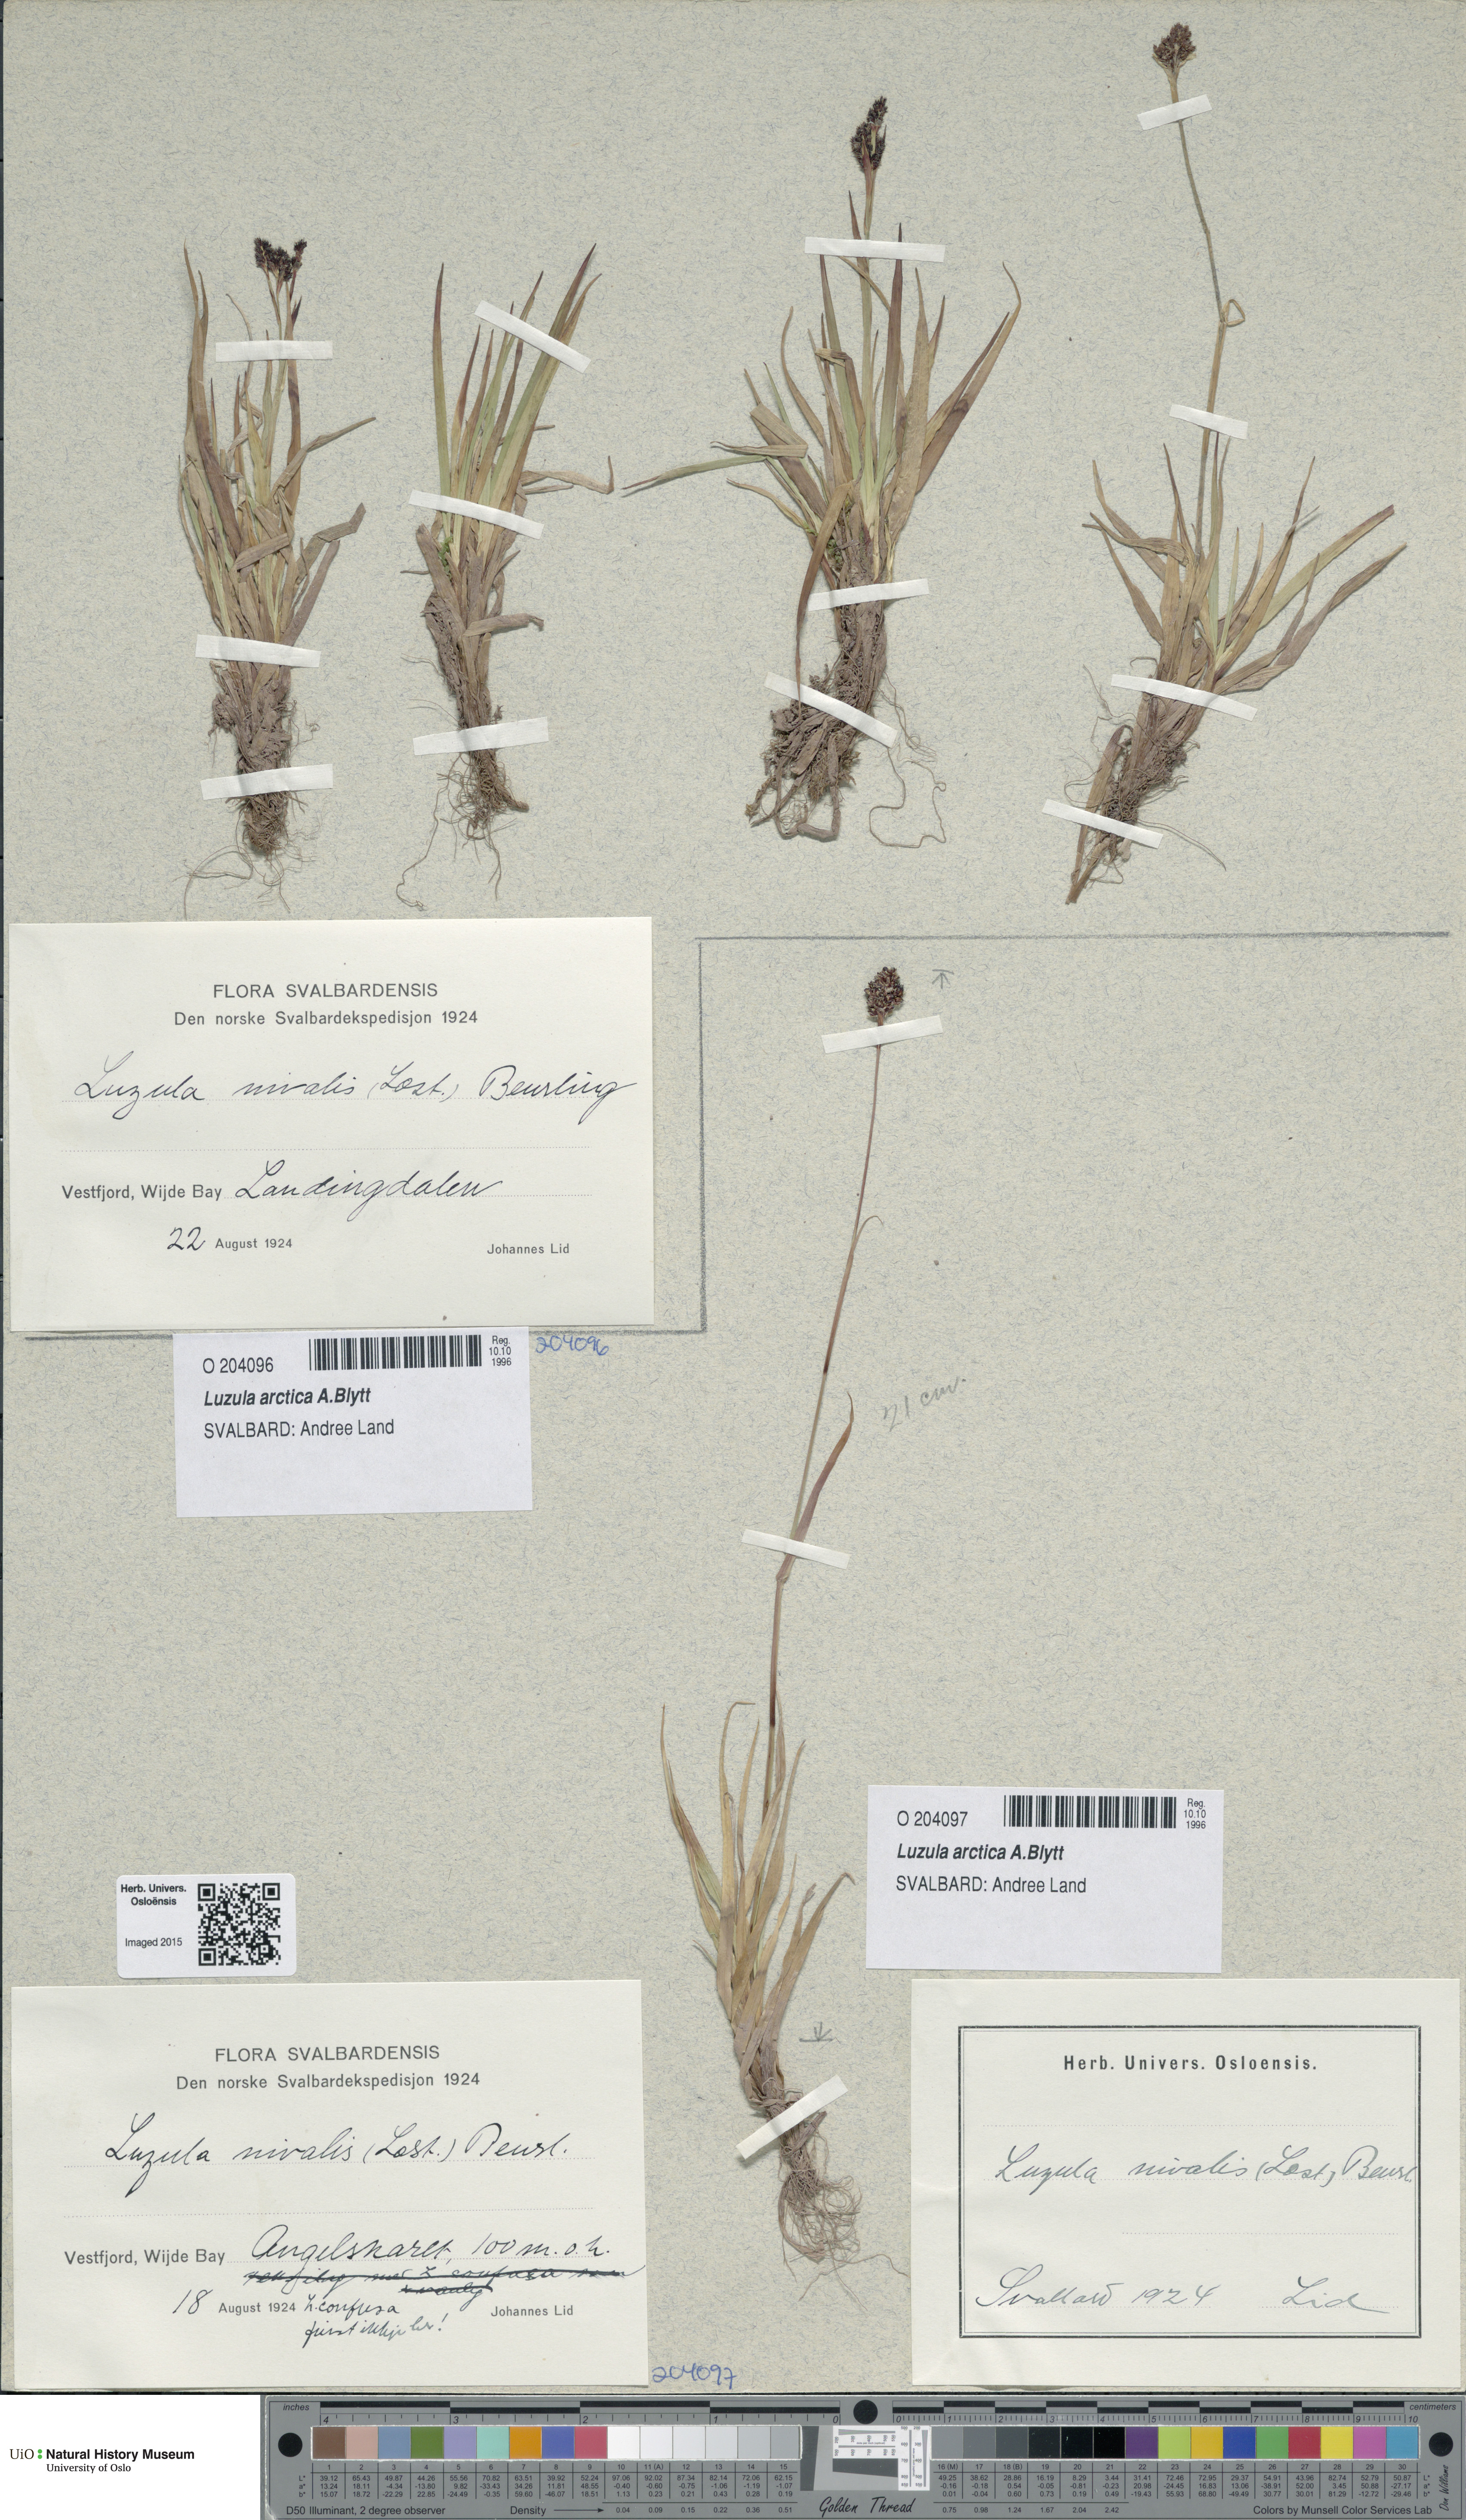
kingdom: Plantae
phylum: Tracheophyta
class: Liliopsida
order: Poales
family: Juncaceae
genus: Luzula
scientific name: Luzula nivalis
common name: Arctic woodrush
